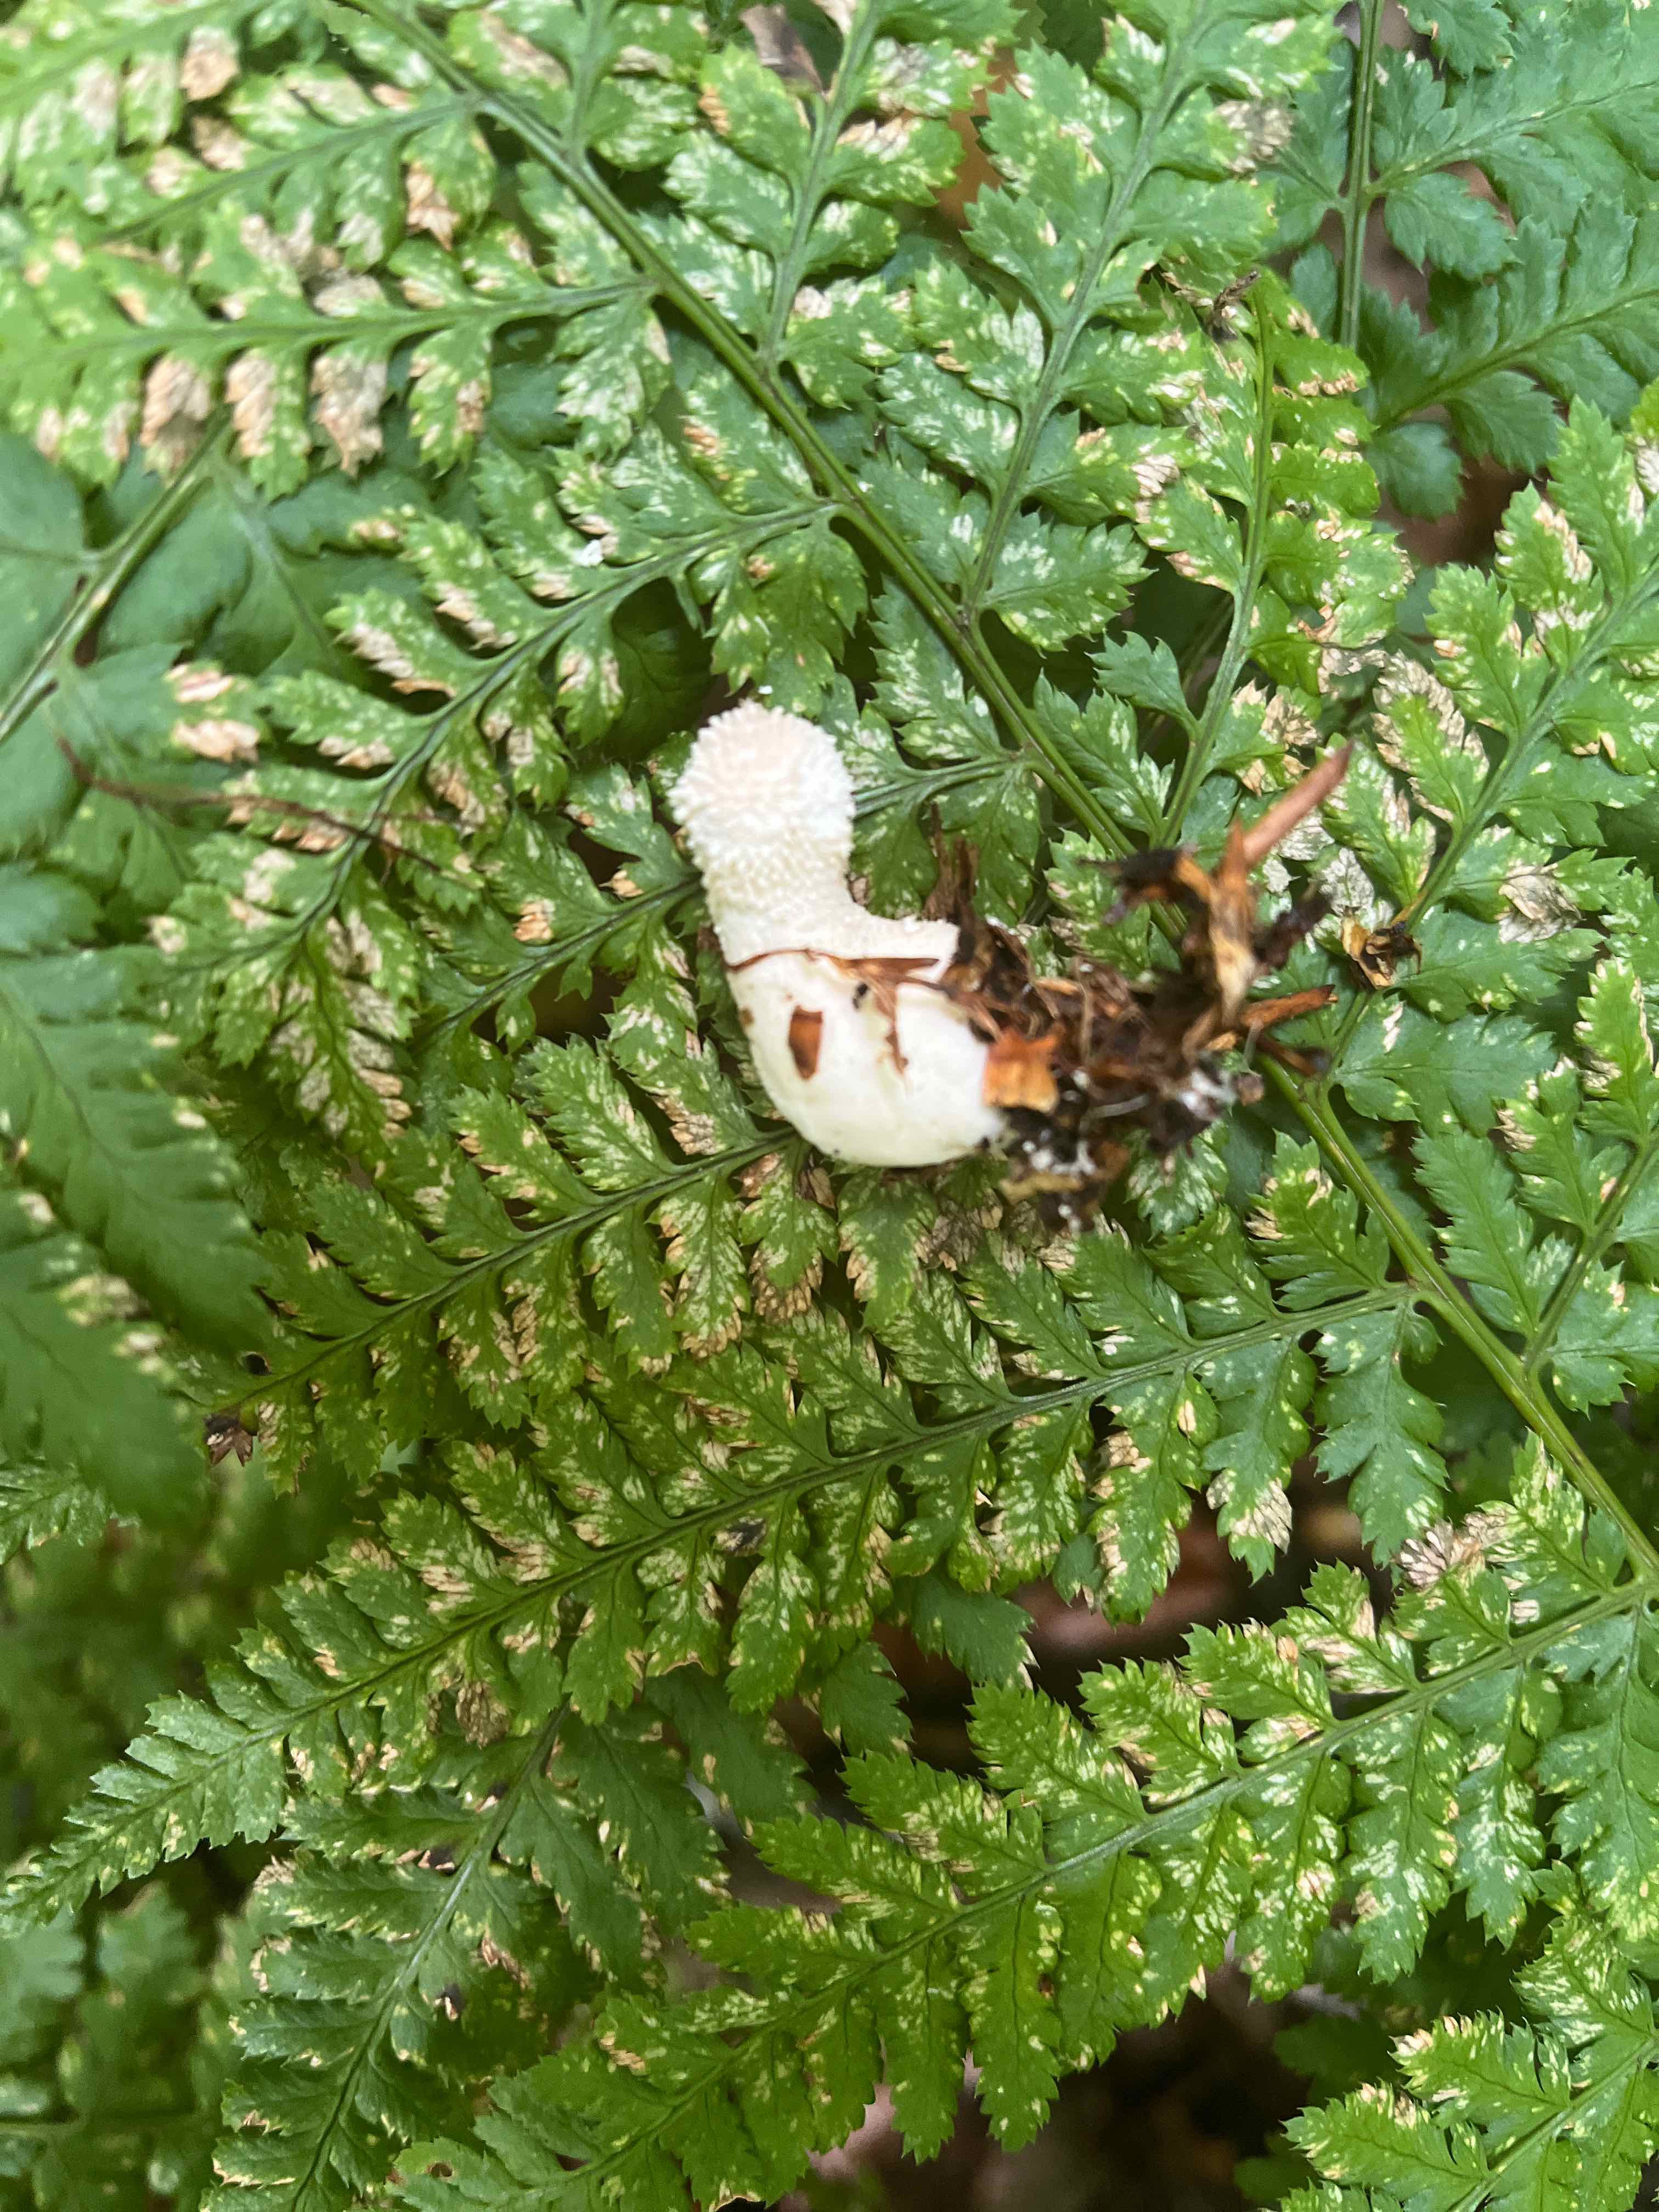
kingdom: Fungi
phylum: Basidiomycota
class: Agaricomycetes
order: Agaricales
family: Agaricaceae
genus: Lycoperdon
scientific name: Lycoperdon
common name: støvbold
